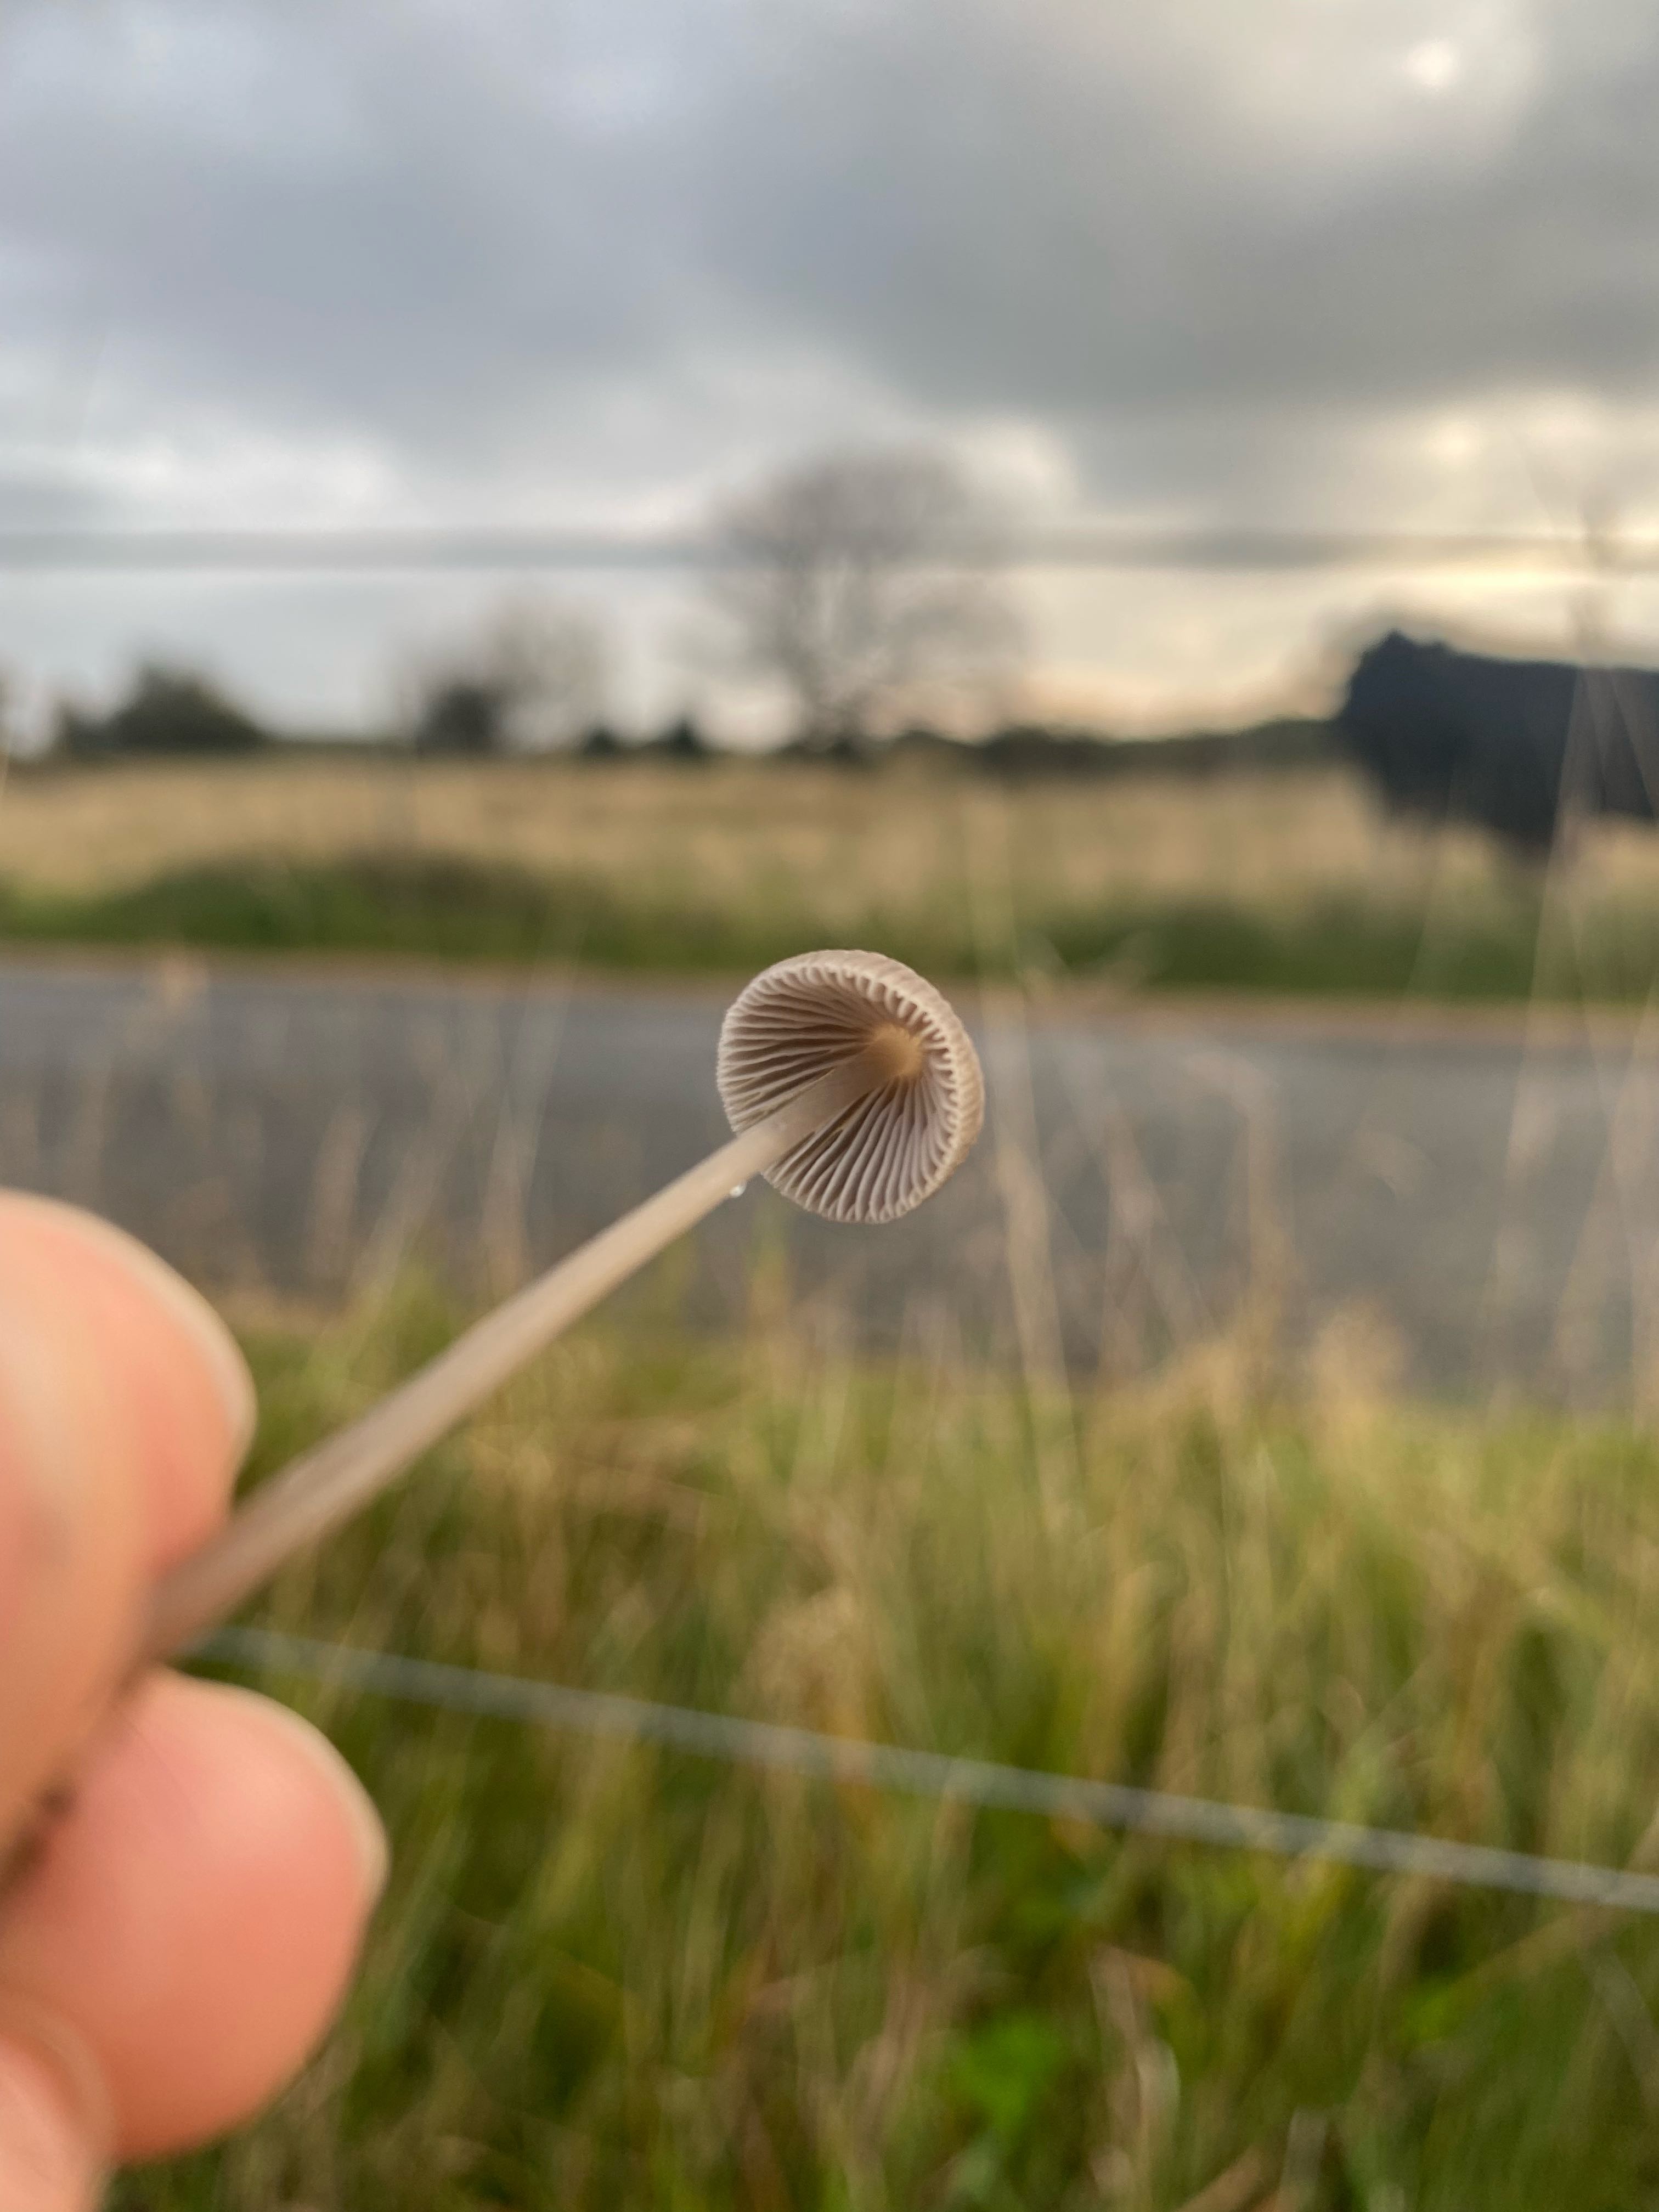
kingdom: Fungi
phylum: Basidiomycota
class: Agaricomycetes
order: Agaricales
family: Mycenaceae
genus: Mycena
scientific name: Mycena
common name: huesvamp
